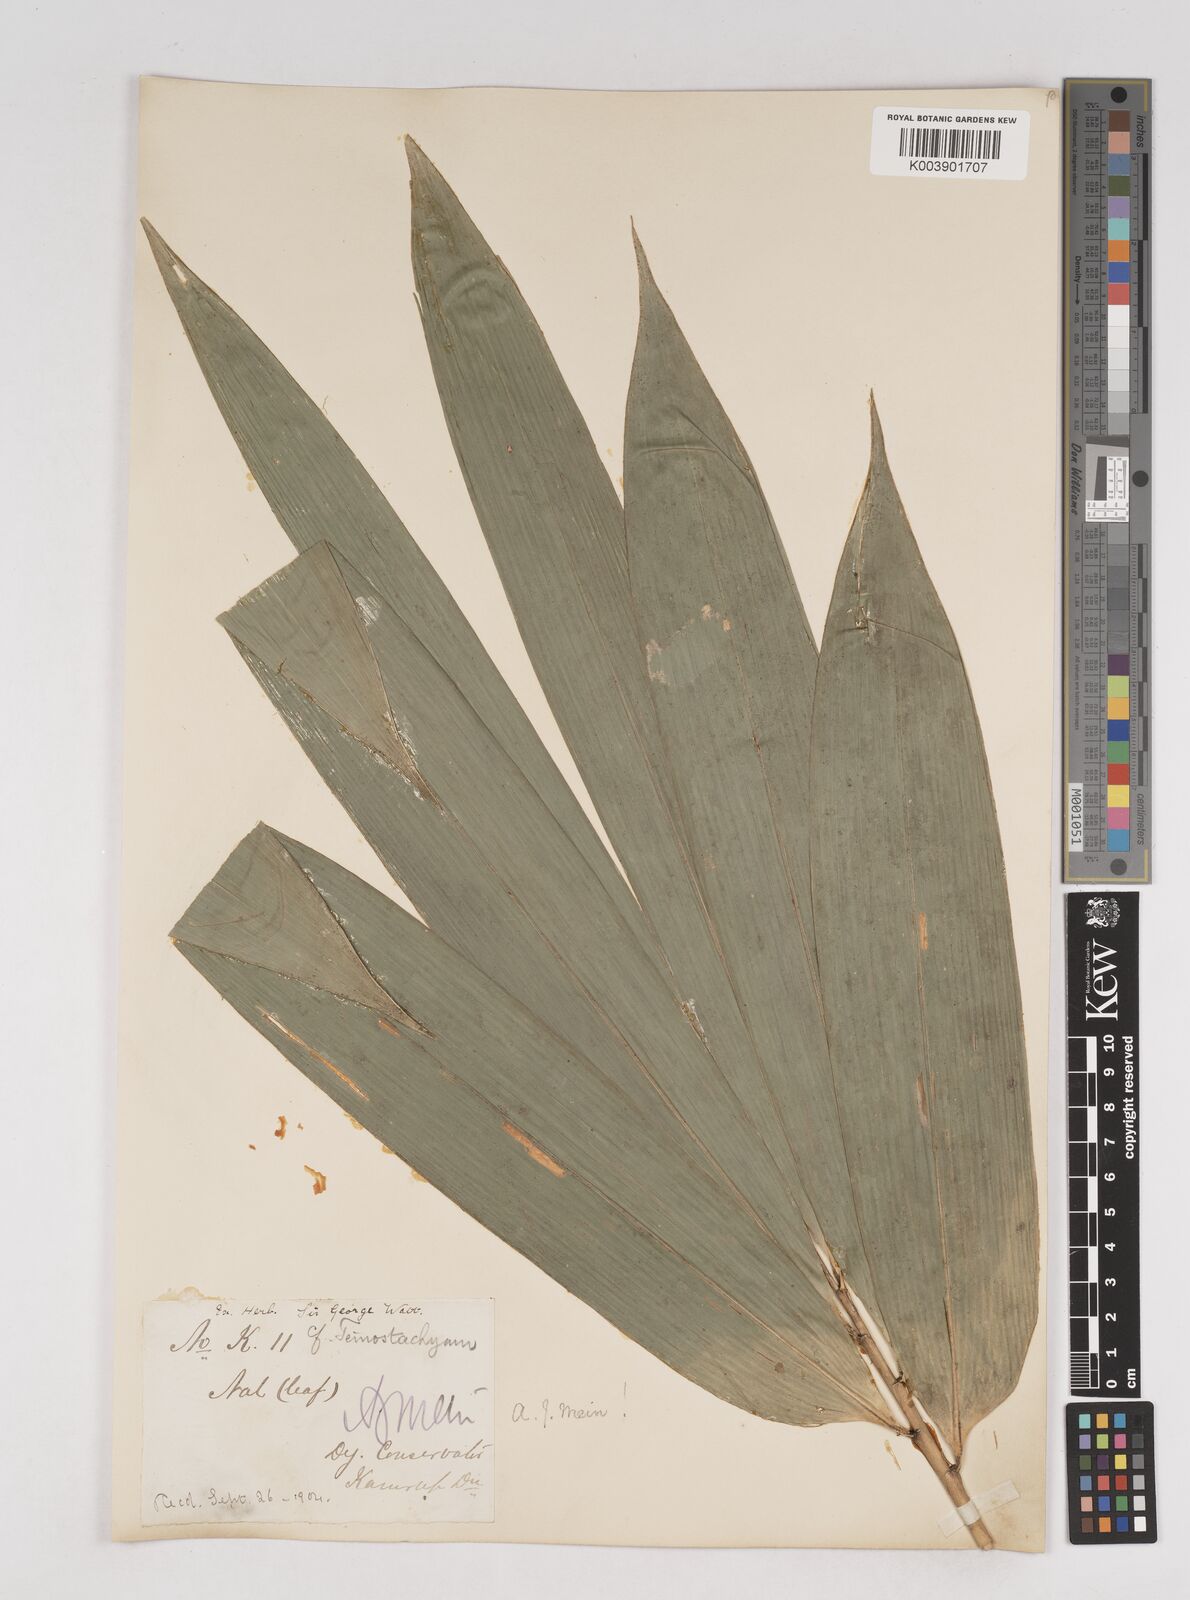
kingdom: Plantae
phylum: Tracheophyta
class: Liliopsida
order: Poales
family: Poaceae
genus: Schizostachyum
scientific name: Schizostachyum dullooa
